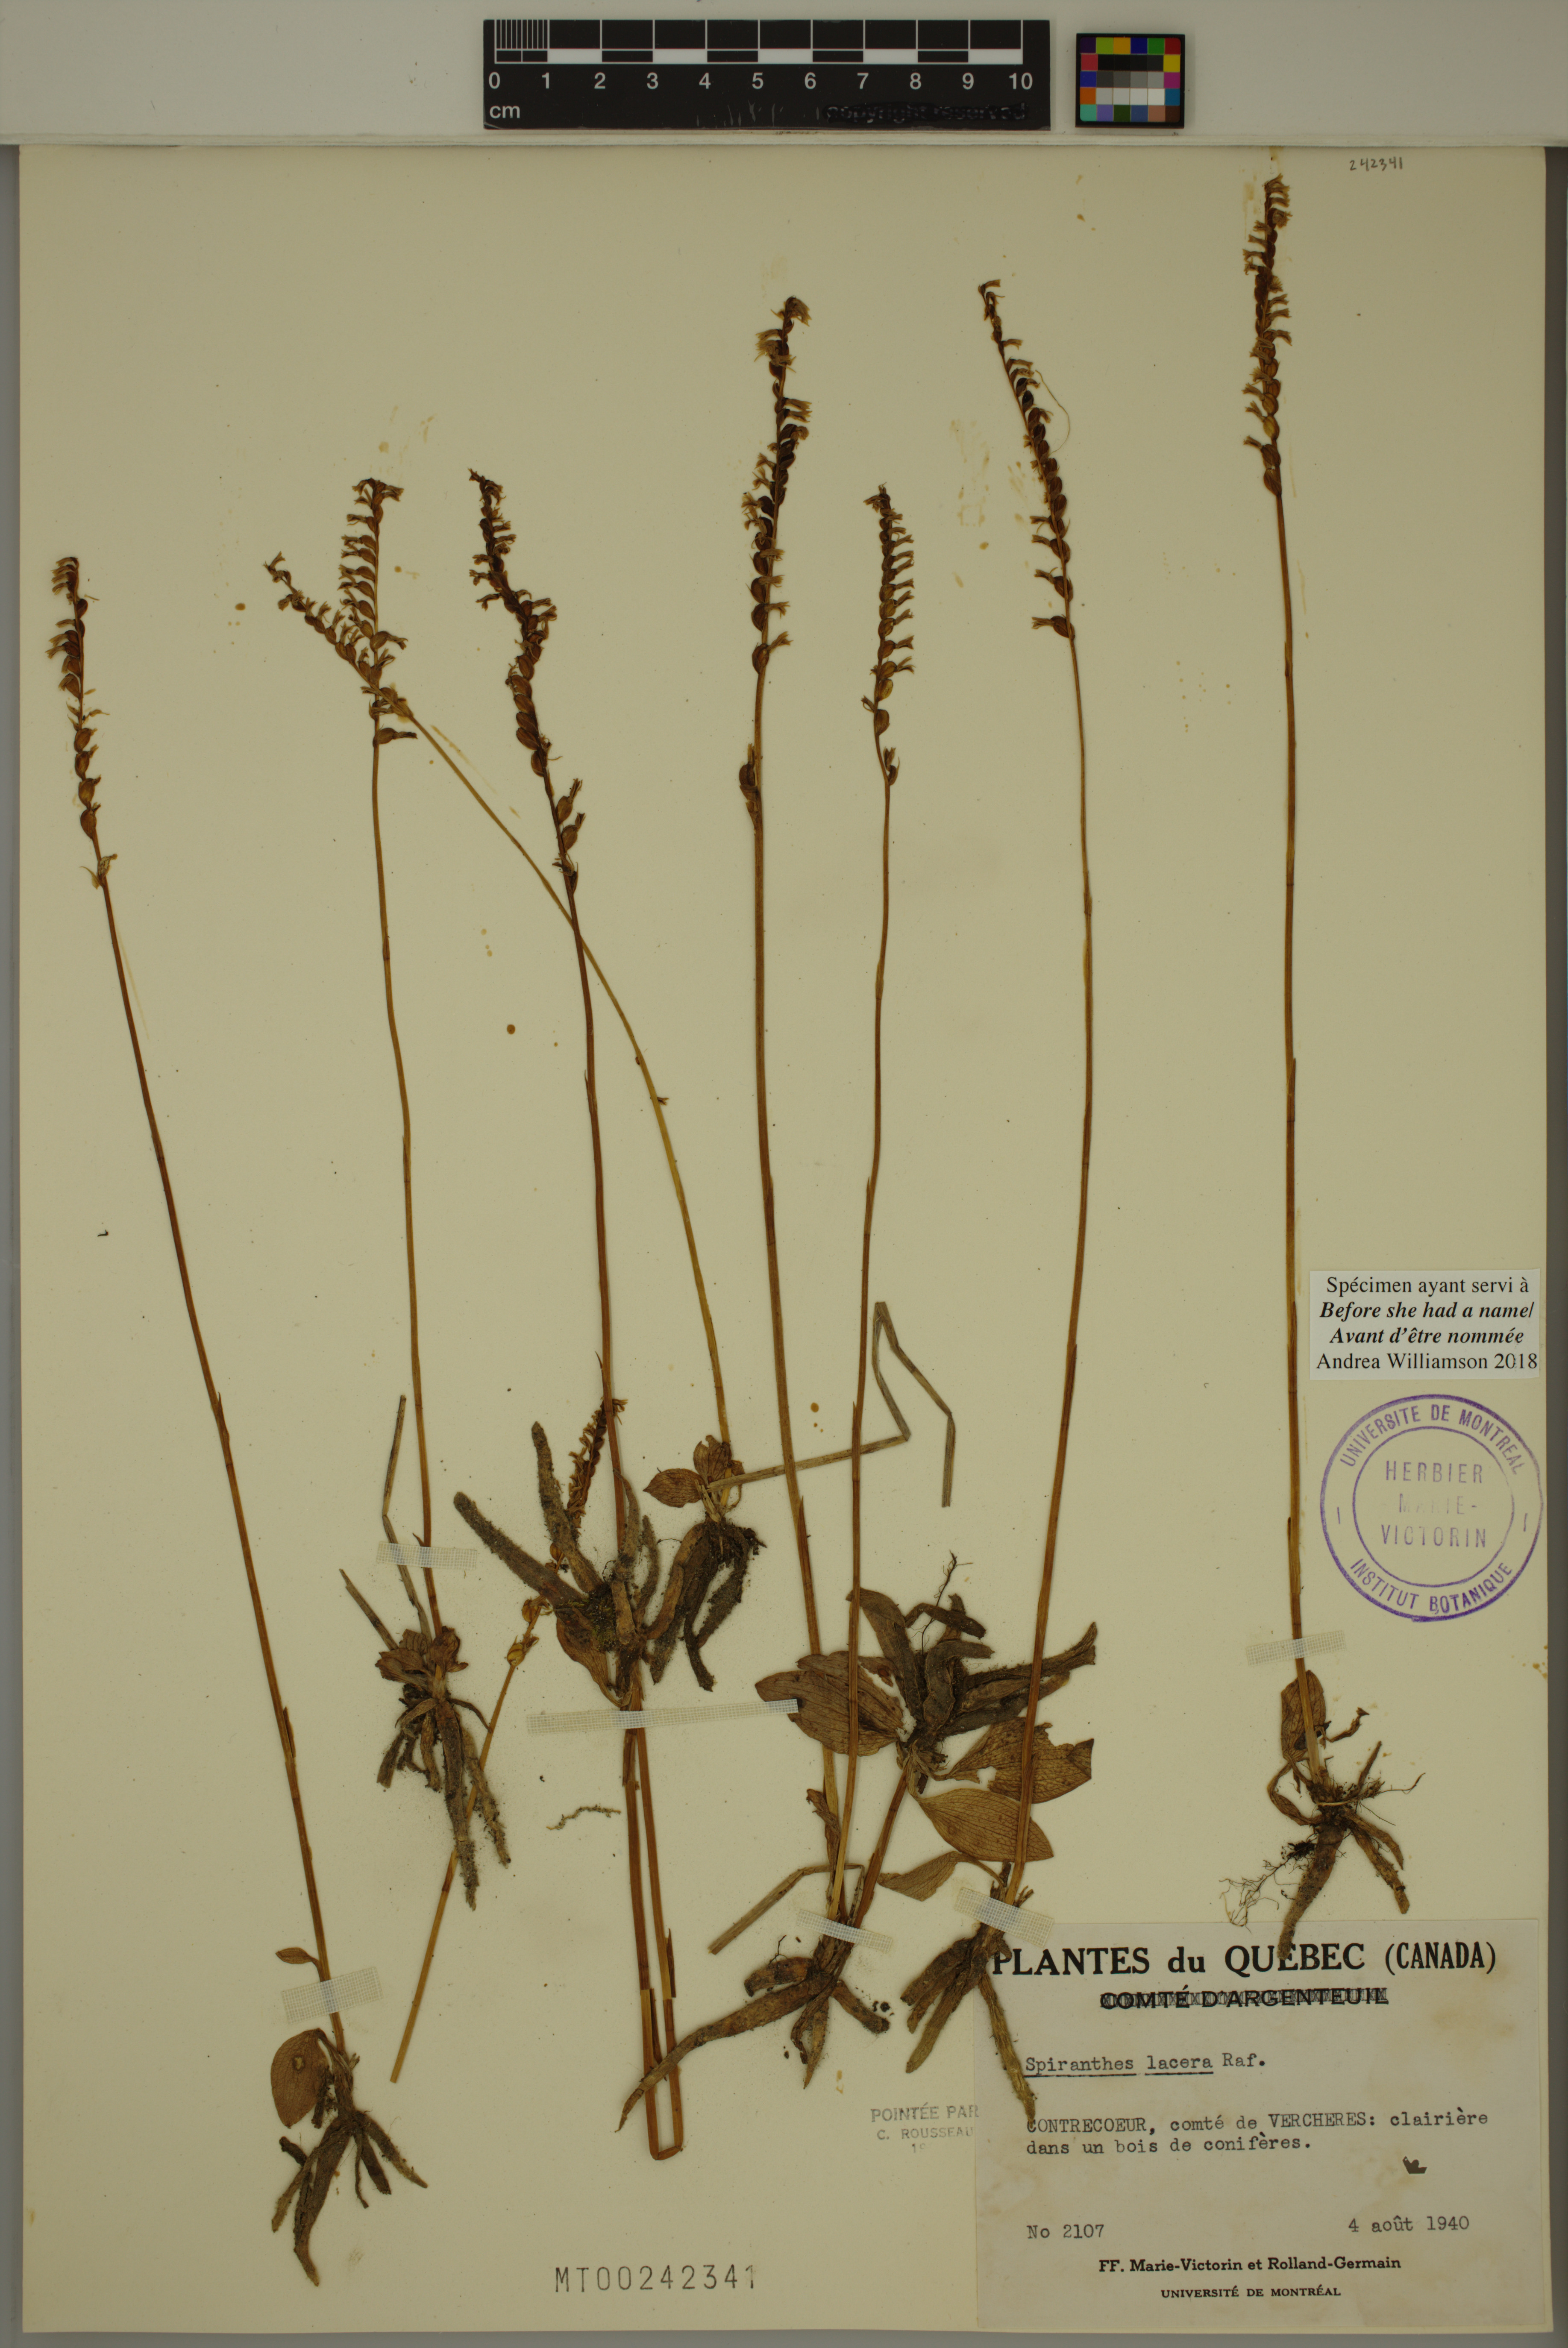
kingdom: Plantae
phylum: Tracheophyta
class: Liliopsida
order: Asparagales
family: Orchidaceae
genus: Spiranthes
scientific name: Spiranthes lacera
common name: Northern slender ladies'-tresses
